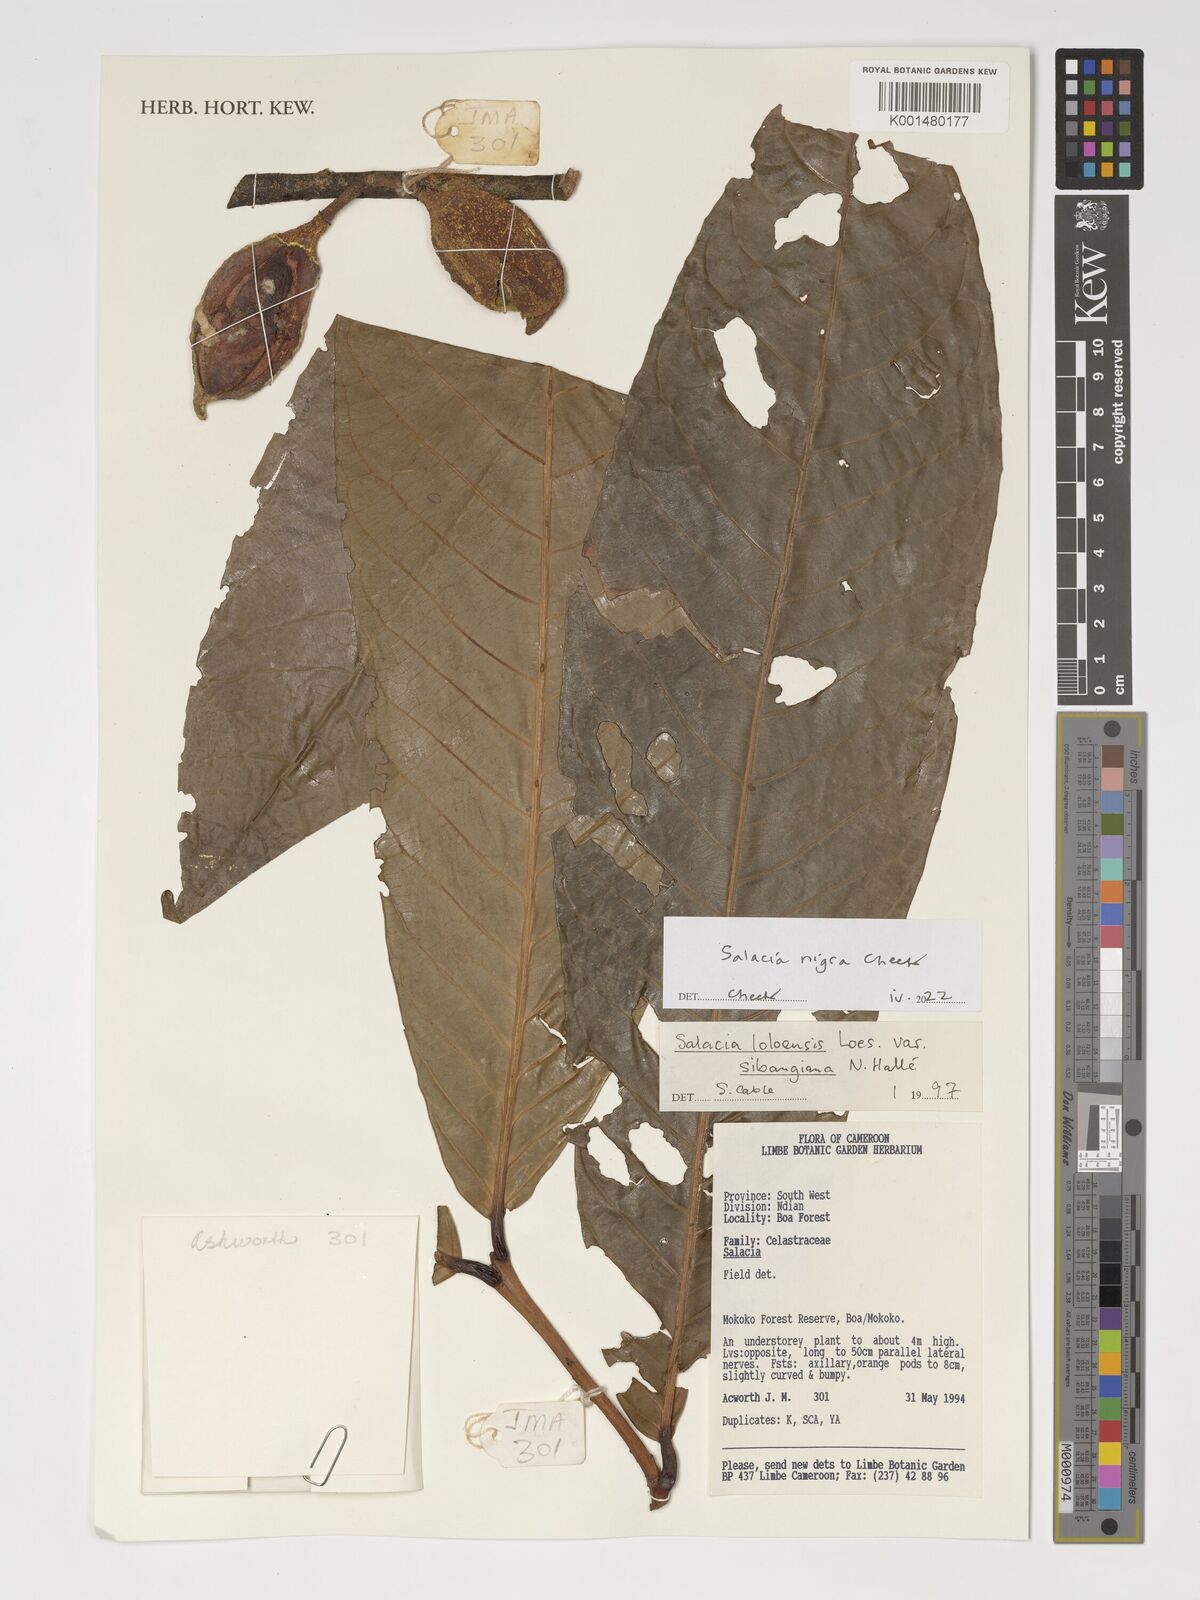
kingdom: Plantae
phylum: Tracheophyta
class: Magnoliopsida
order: Celastrales
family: Celastraceae
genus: Salacia
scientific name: Salacia nigra
